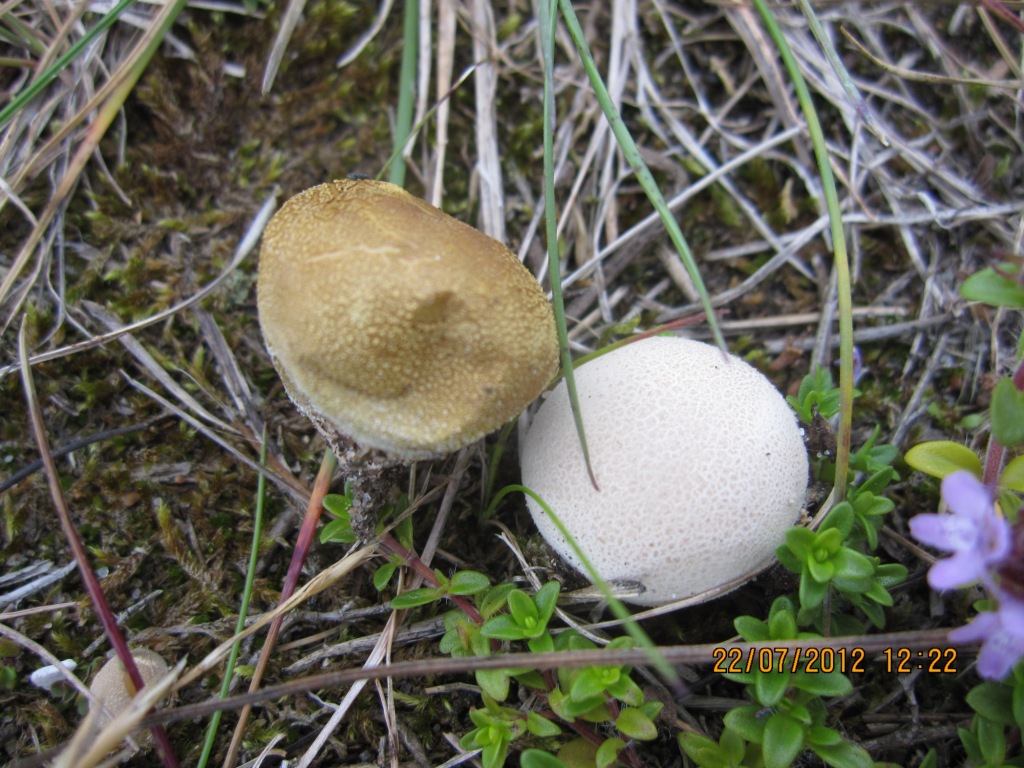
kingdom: Fungi
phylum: Basidiomycota
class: Agaricomycetes
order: Agaricales
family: Lycoperdaceae
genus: Bovista
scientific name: Bovista aestivalis
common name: klit-bovist
